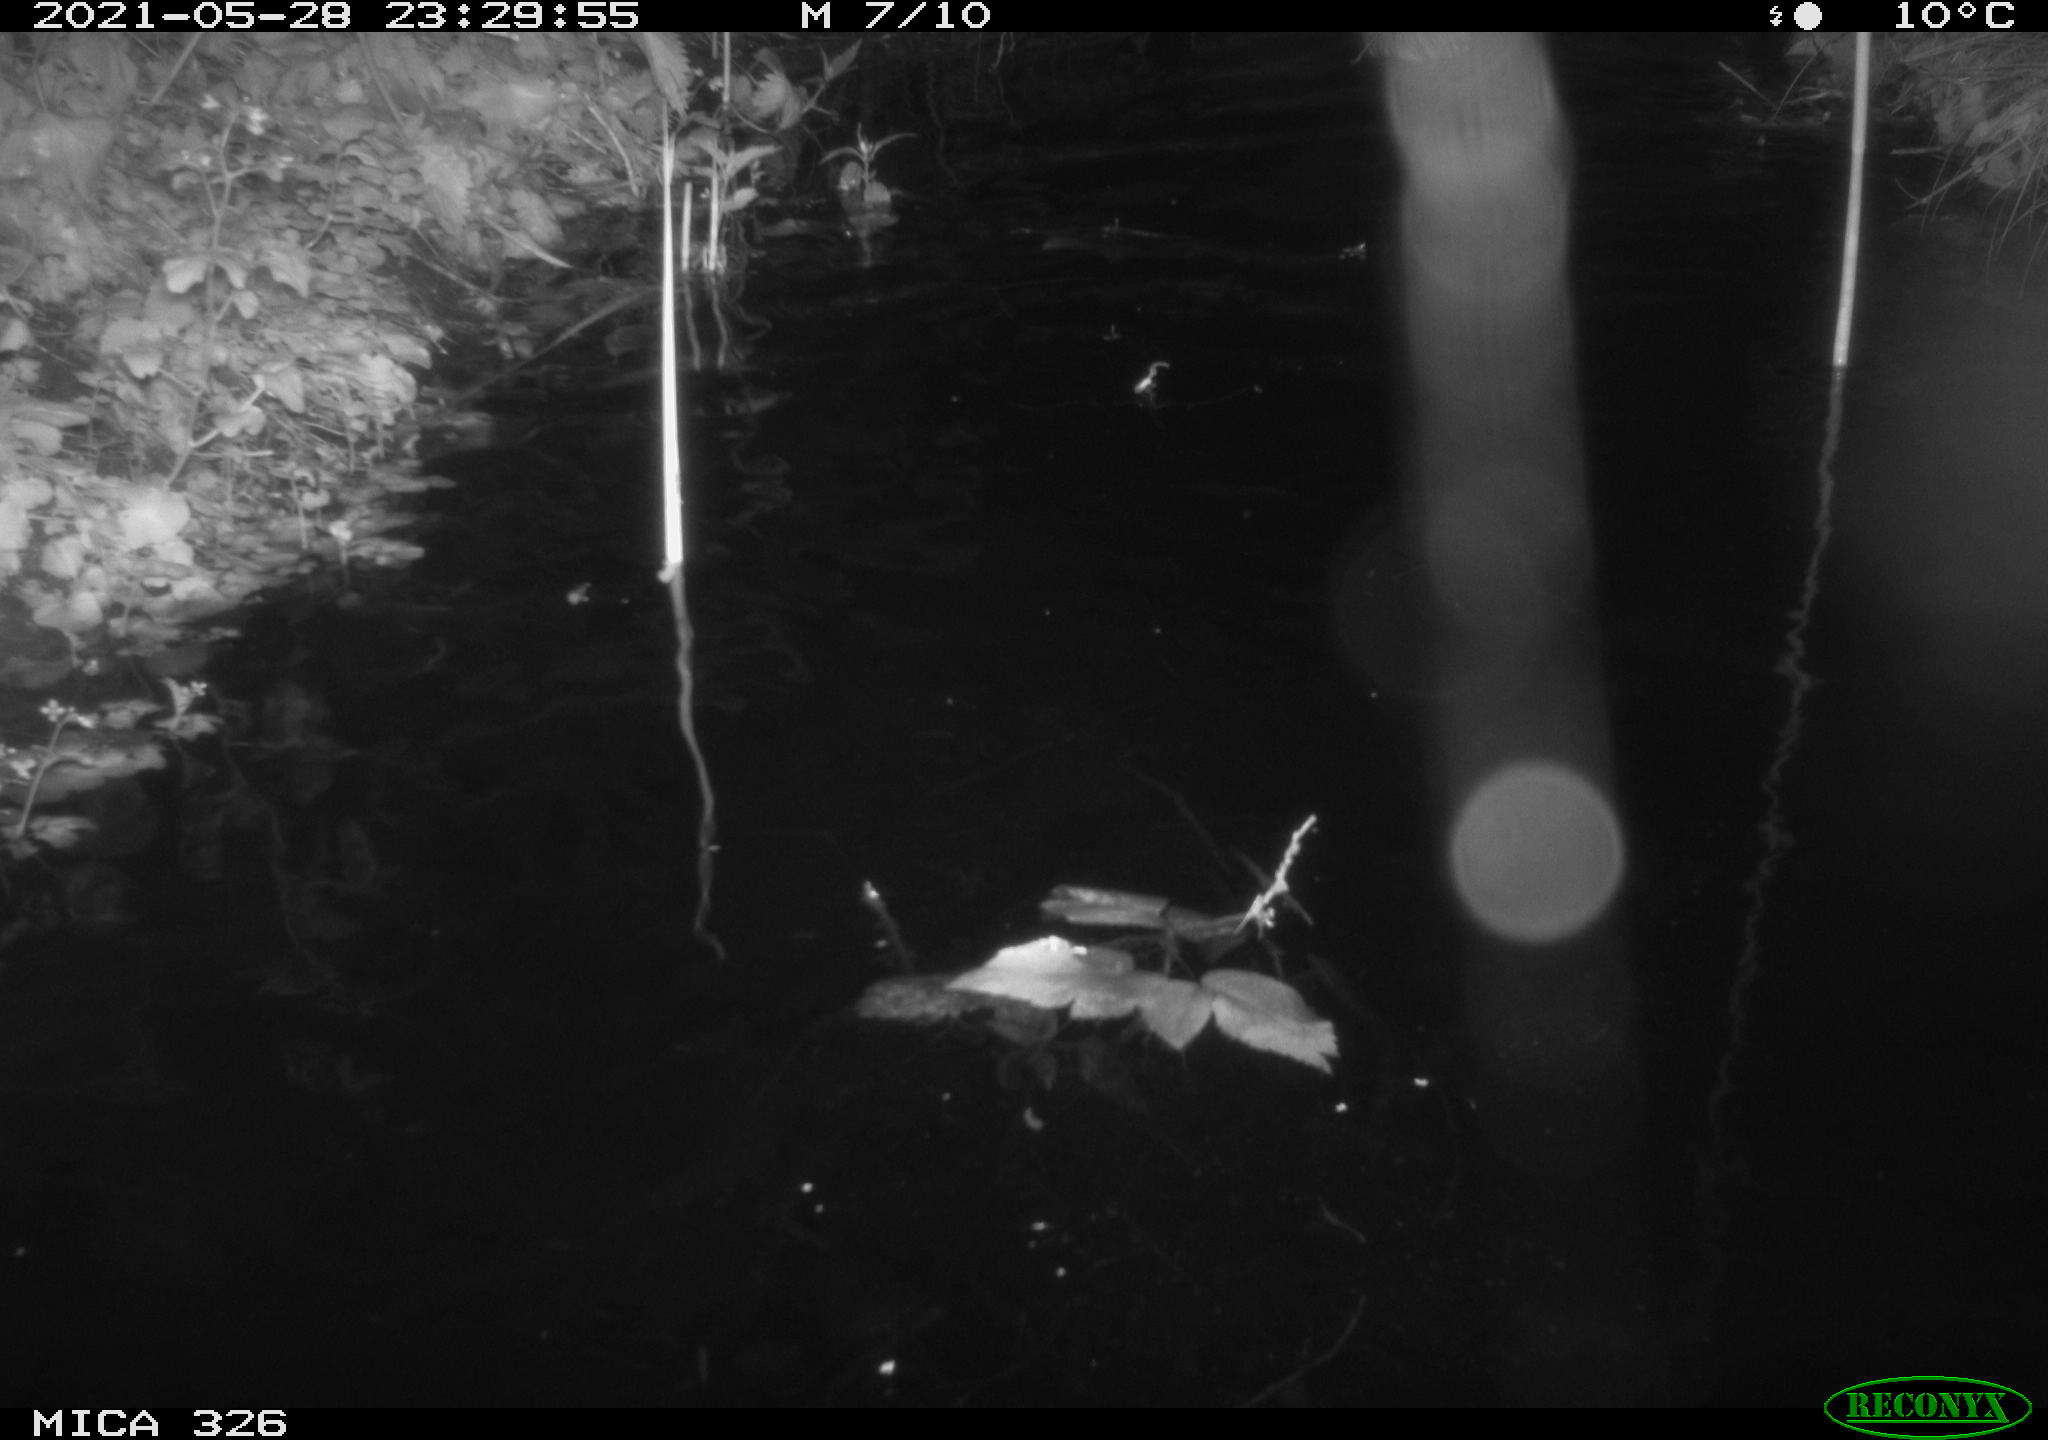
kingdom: Animalia
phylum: Chordata
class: Mammalia
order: Rodentia
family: Cricetidae
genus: Ondatra
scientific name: Ondatra zibethicus
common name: Muskrat
